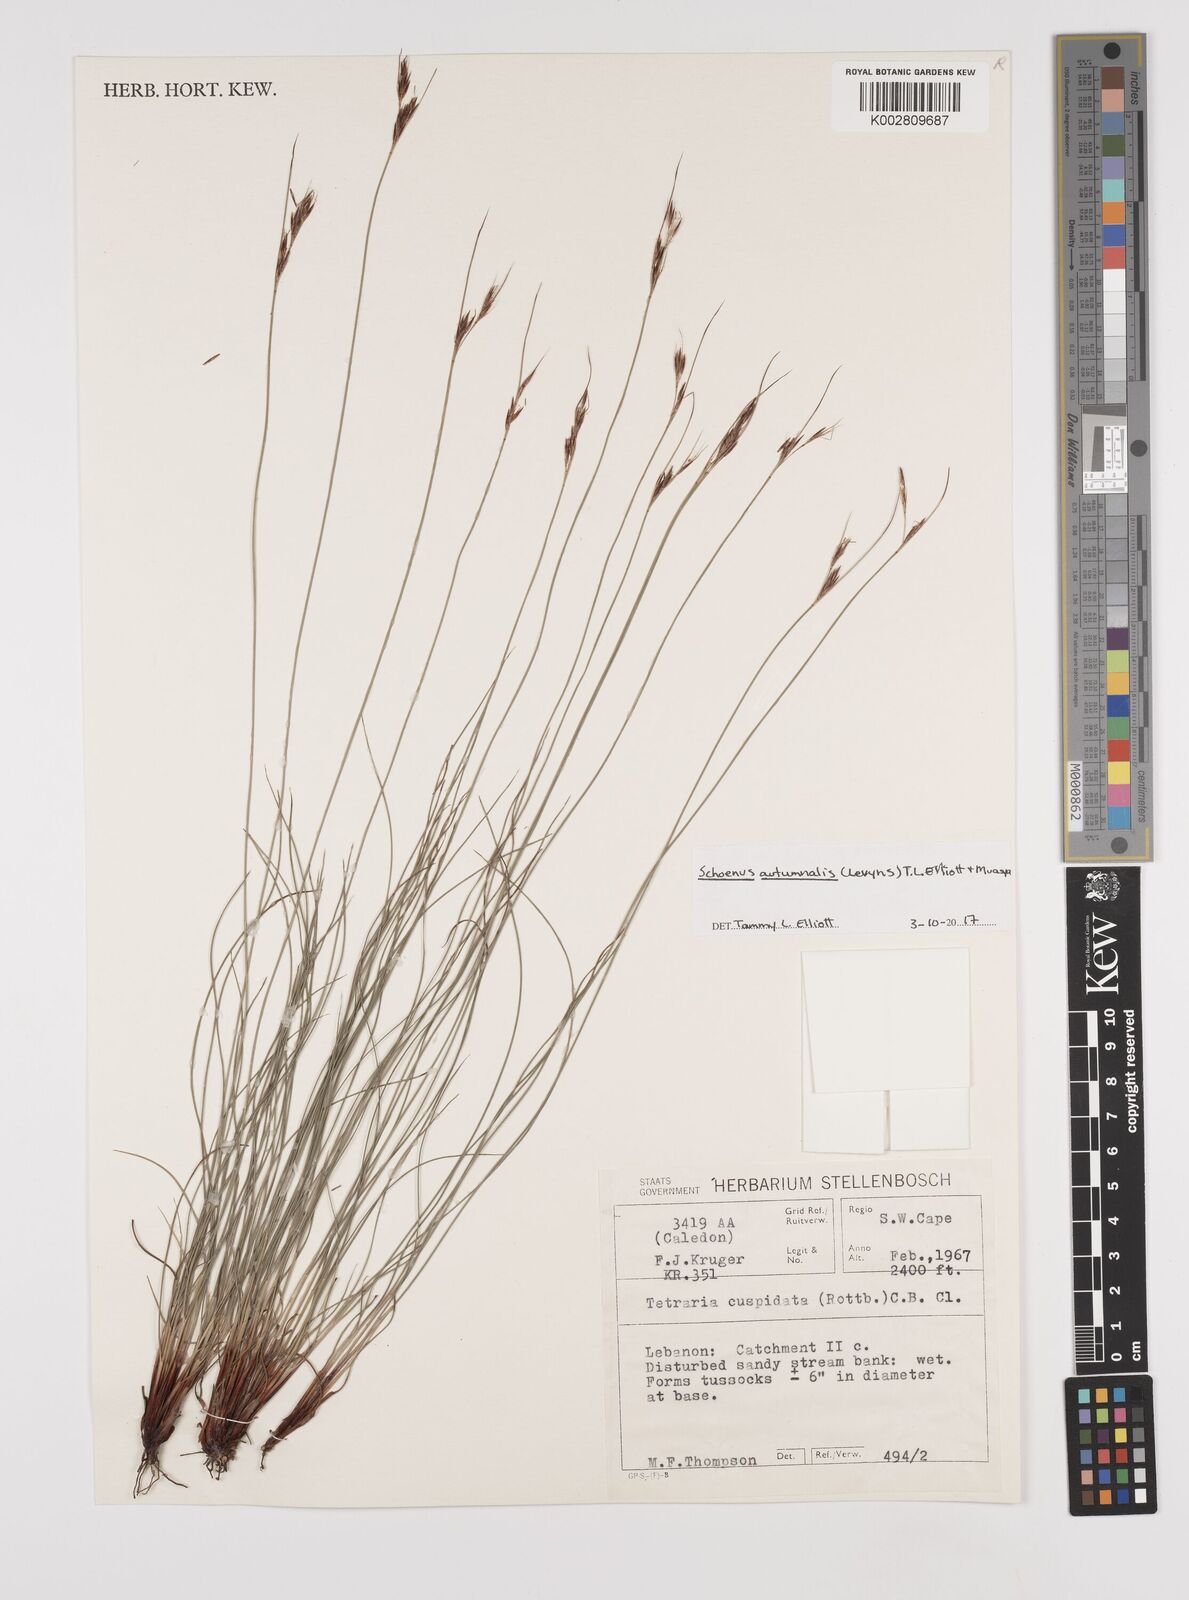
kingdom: Plantae
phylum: Tracheophyta
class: Liliopsida
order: Poales
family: Cyperaceae
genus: Schoenus
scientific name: Schoenus ligulatus
